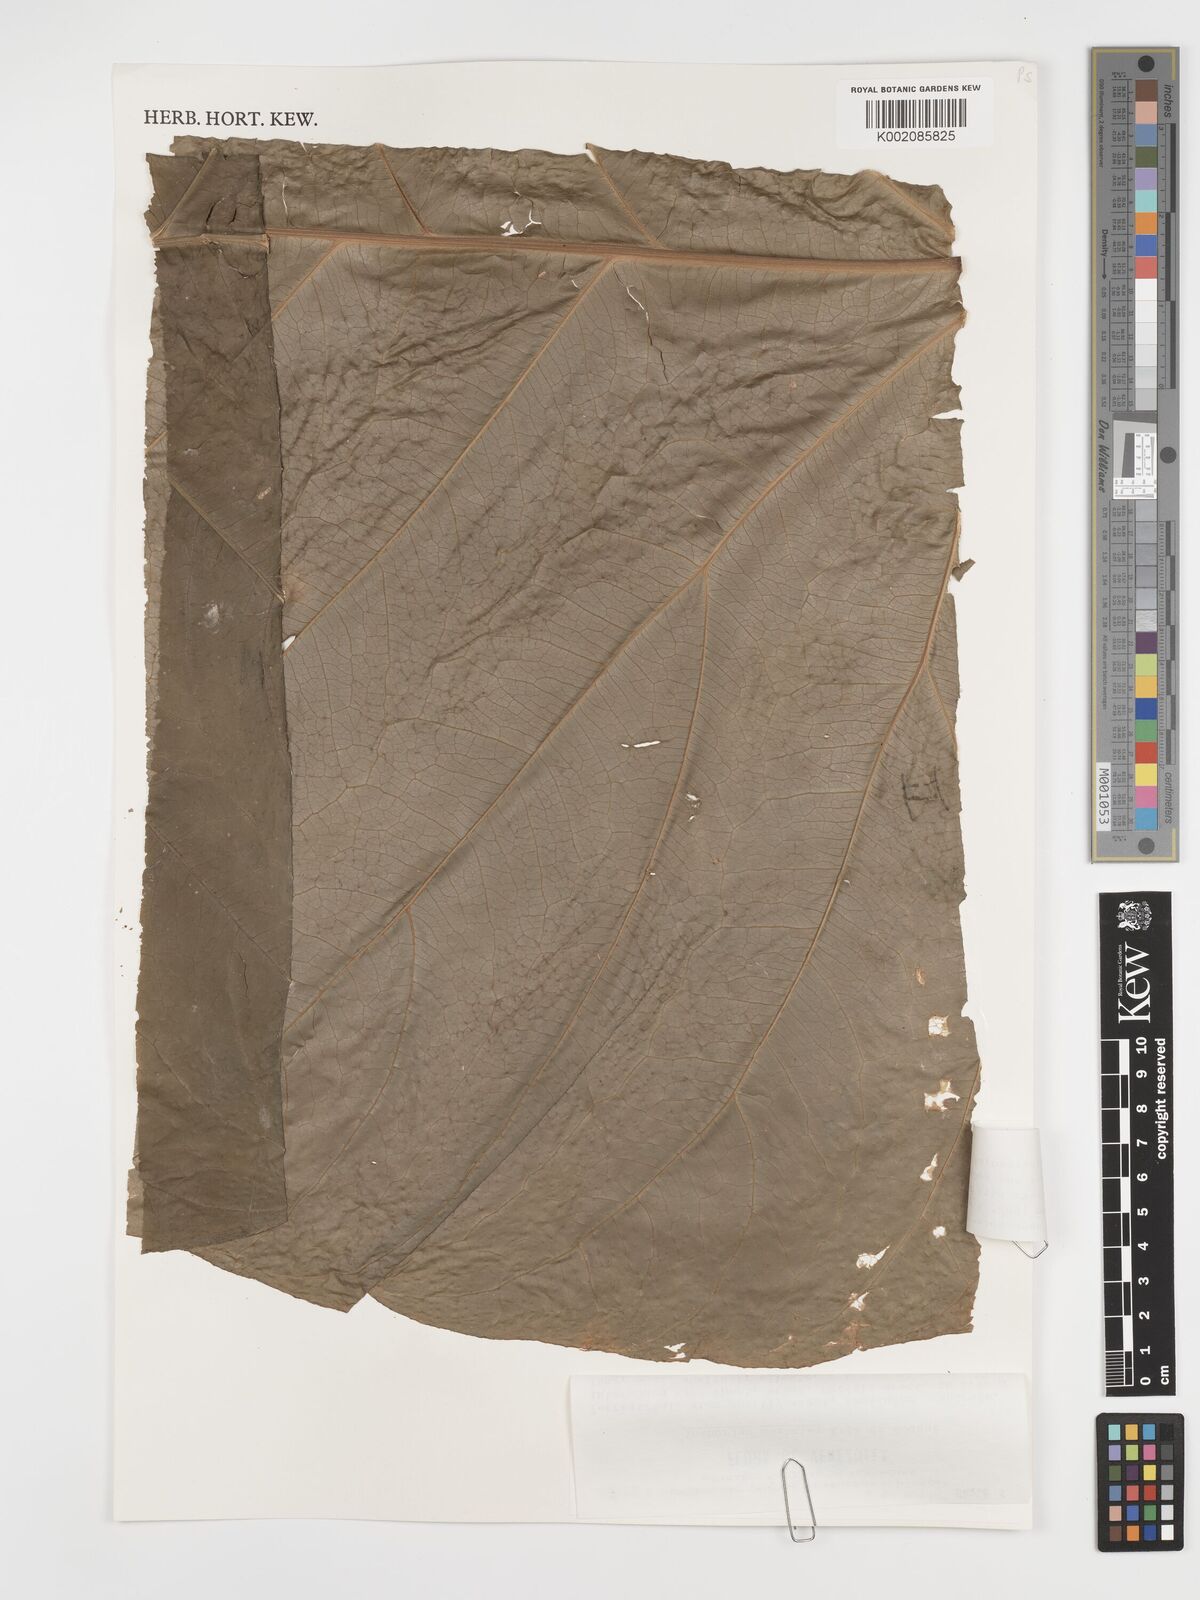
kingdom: Plantae
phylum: Tracheophyta
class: Liliopsida
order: Alismatales
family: Araceae
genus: Anthurium
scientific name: Anthurium macrophyllum
